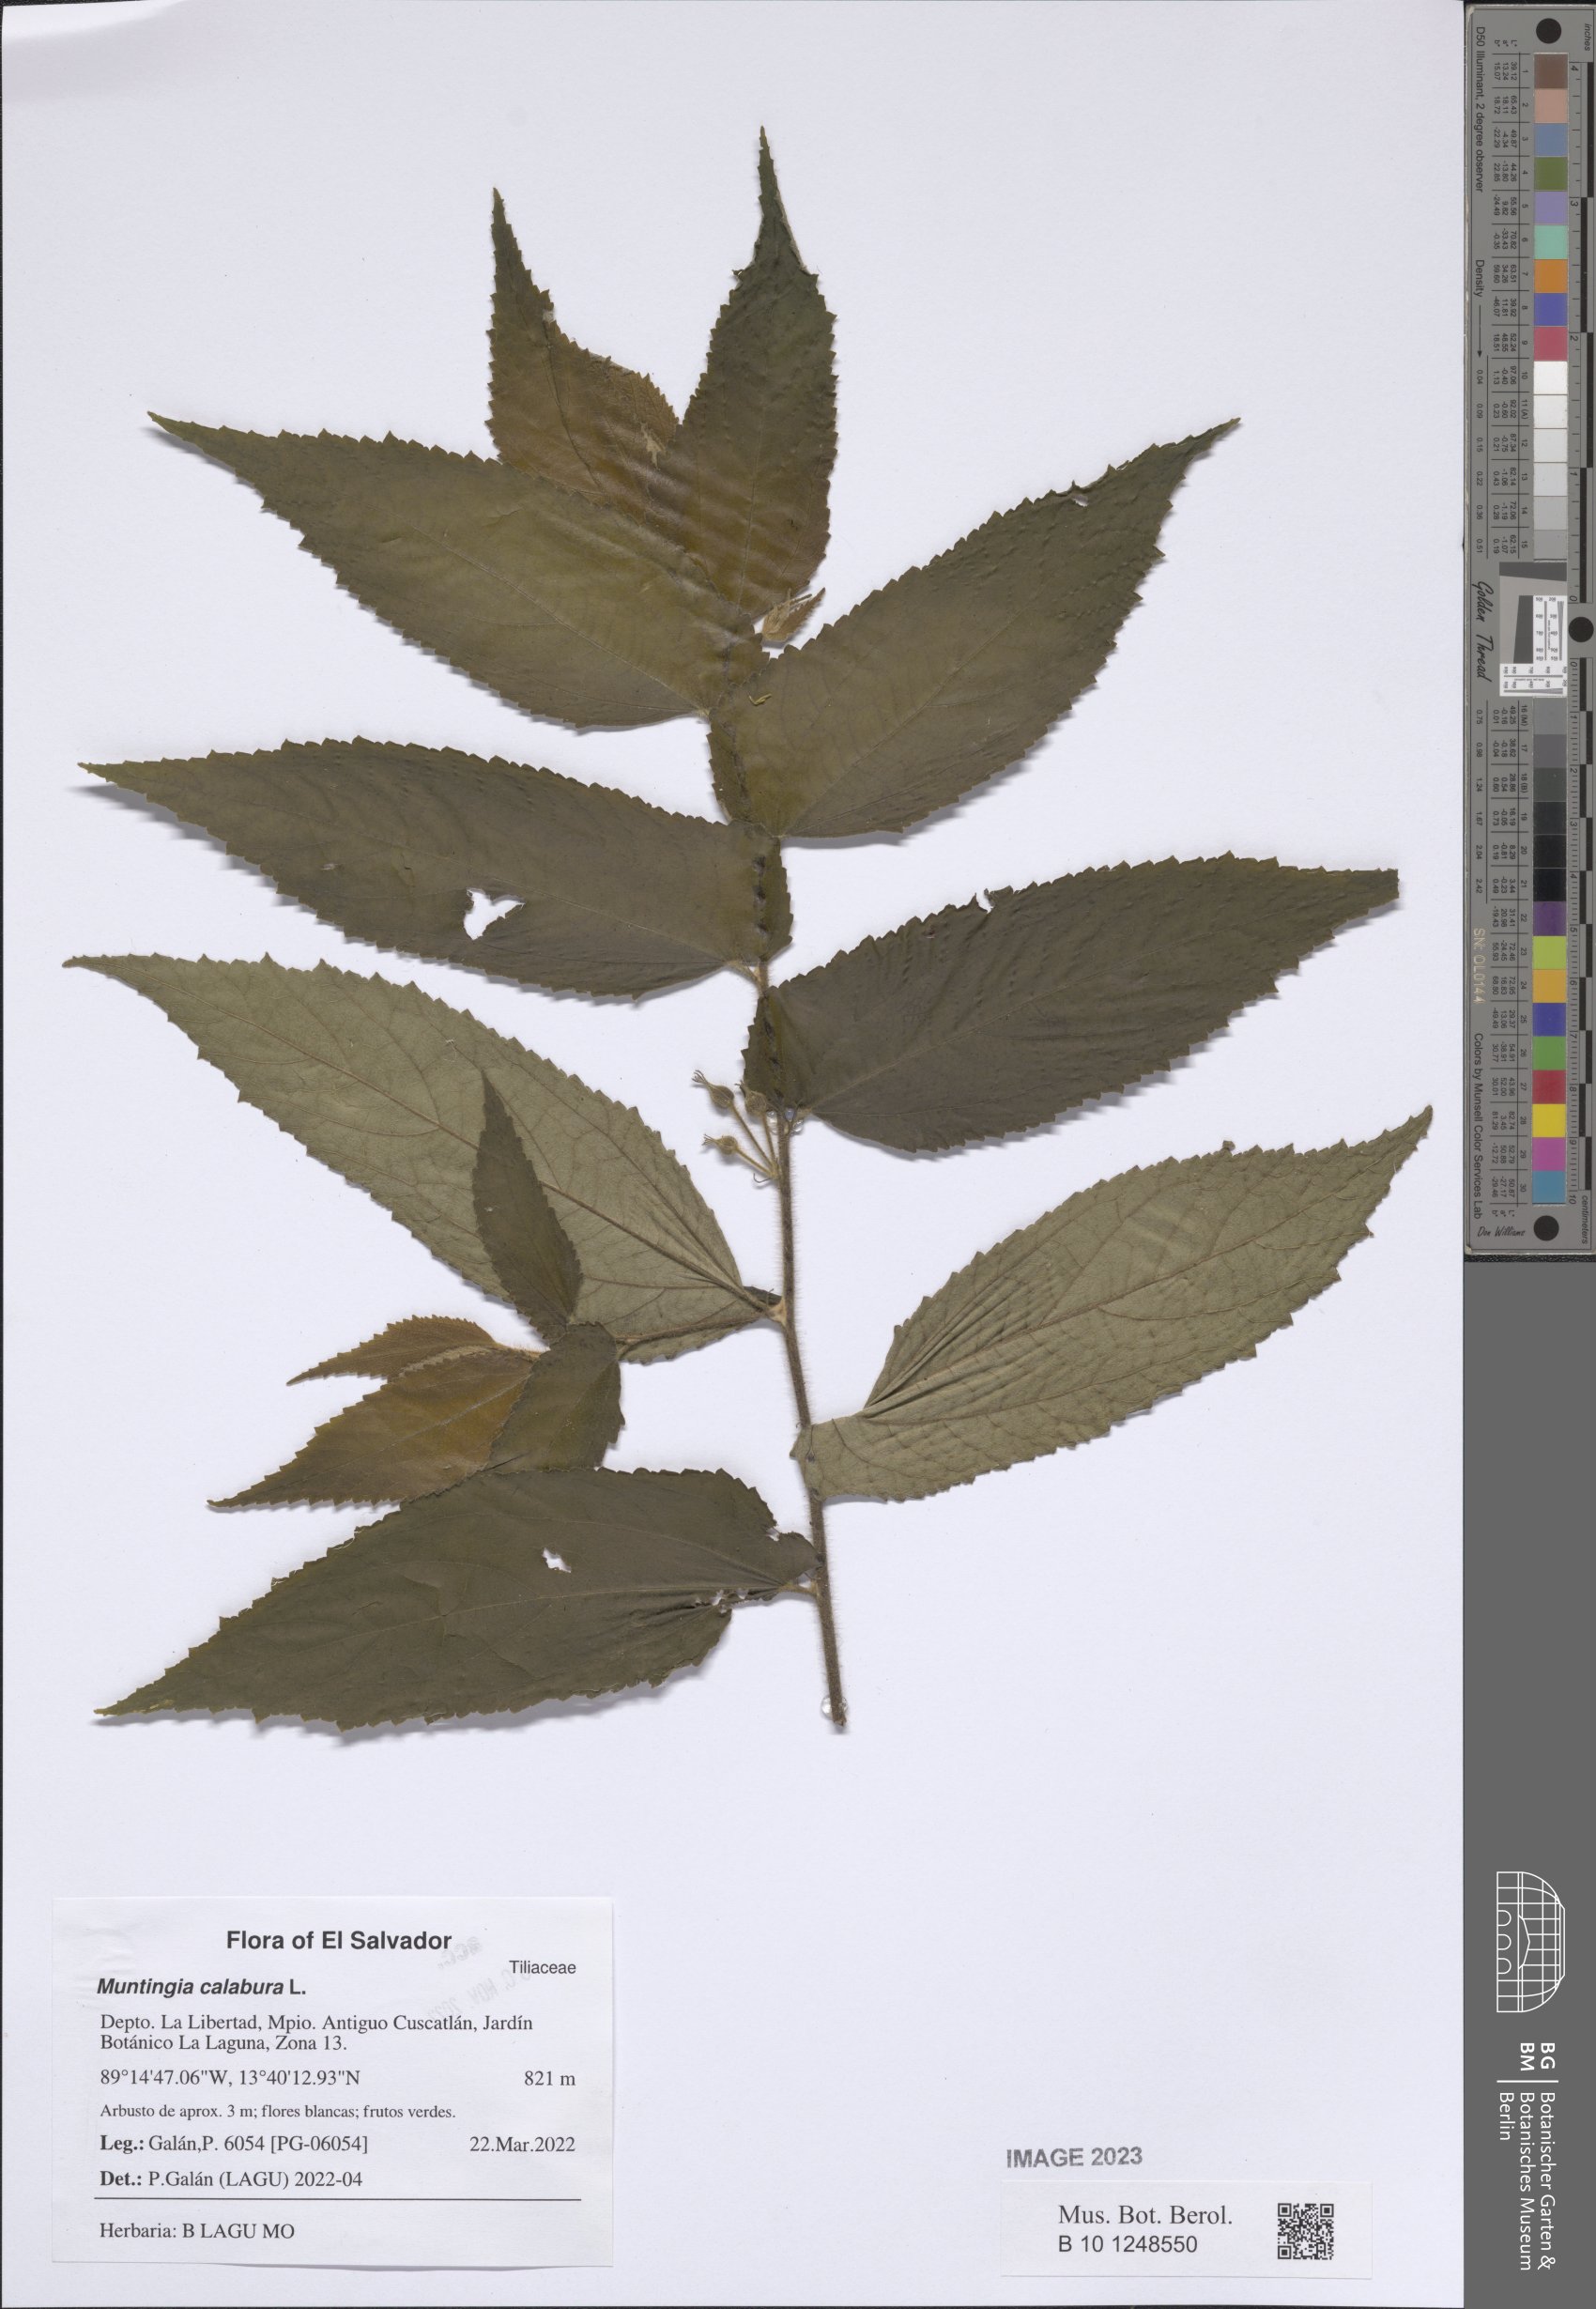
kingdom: Plantae
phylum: Tracheophyta
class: Magnoliopsida
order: Malvales
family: Muntingiaceae
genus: Muntingia
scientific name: Muntingia calabura
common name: Strawberrytree
